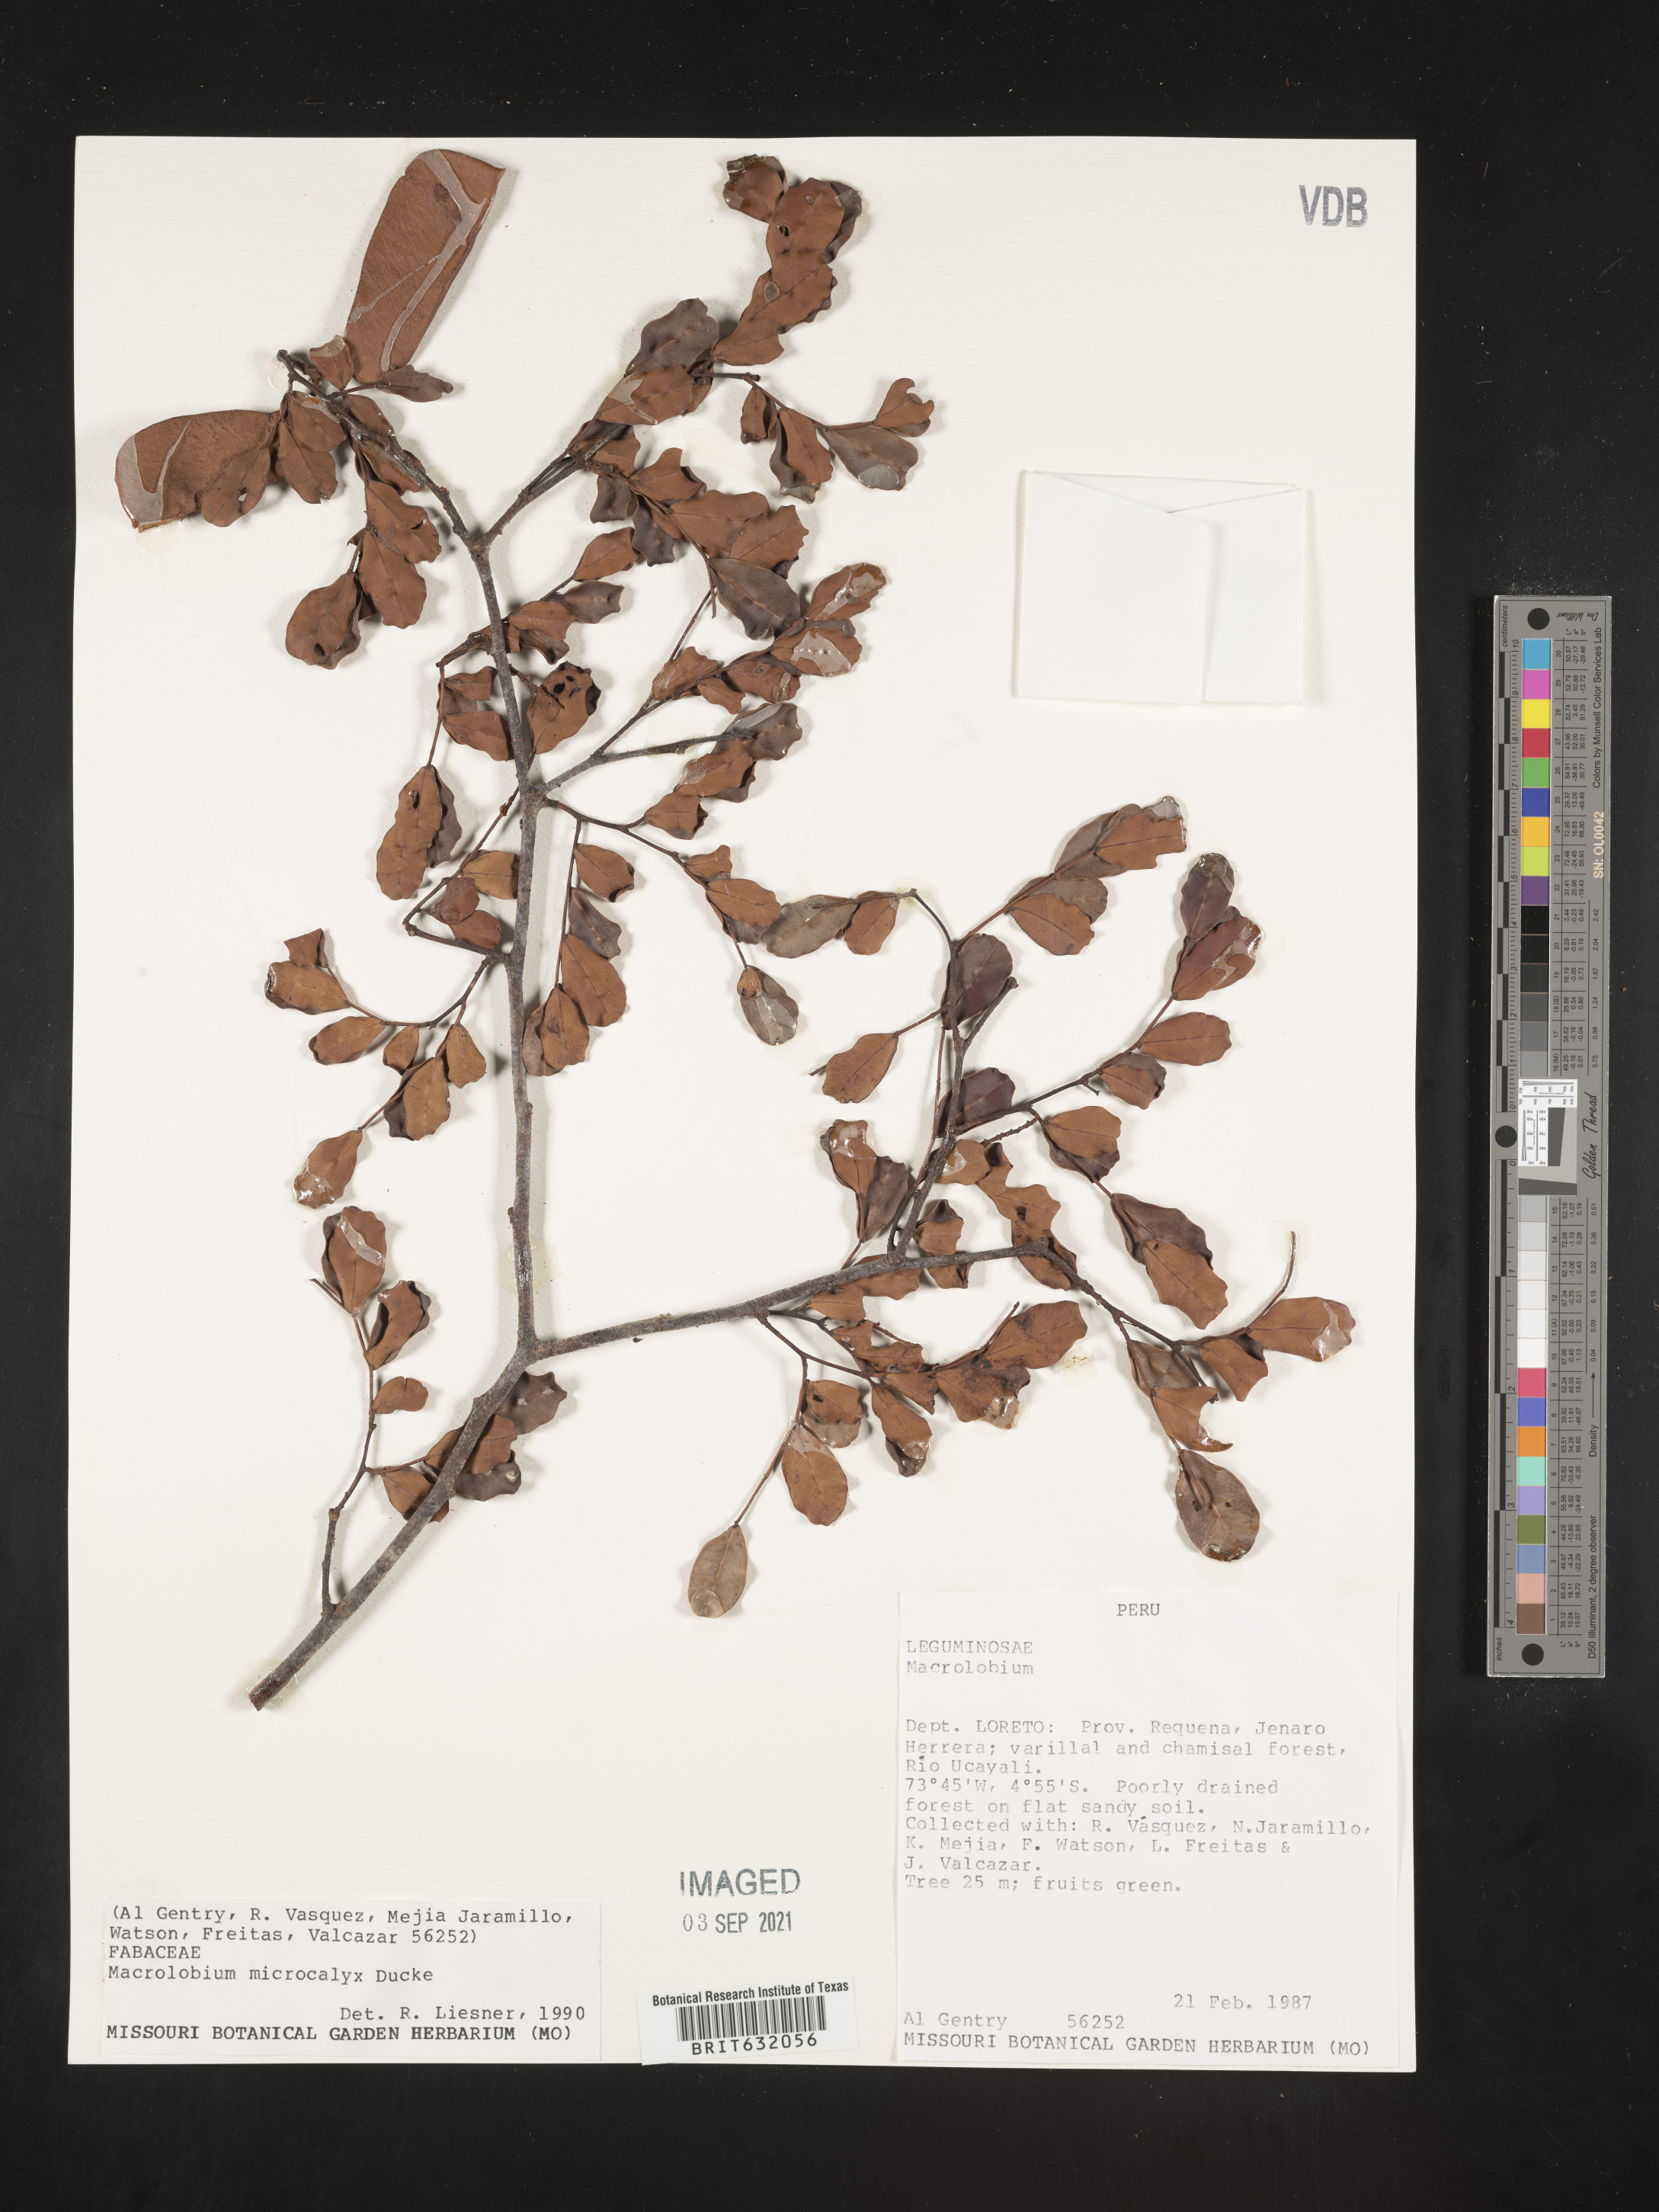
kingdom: Plantae
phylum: Tracheophyta
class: Magnoliopsida
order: Fabales
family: Fabaceae
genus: Macrolobium
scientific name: Macrolobium
